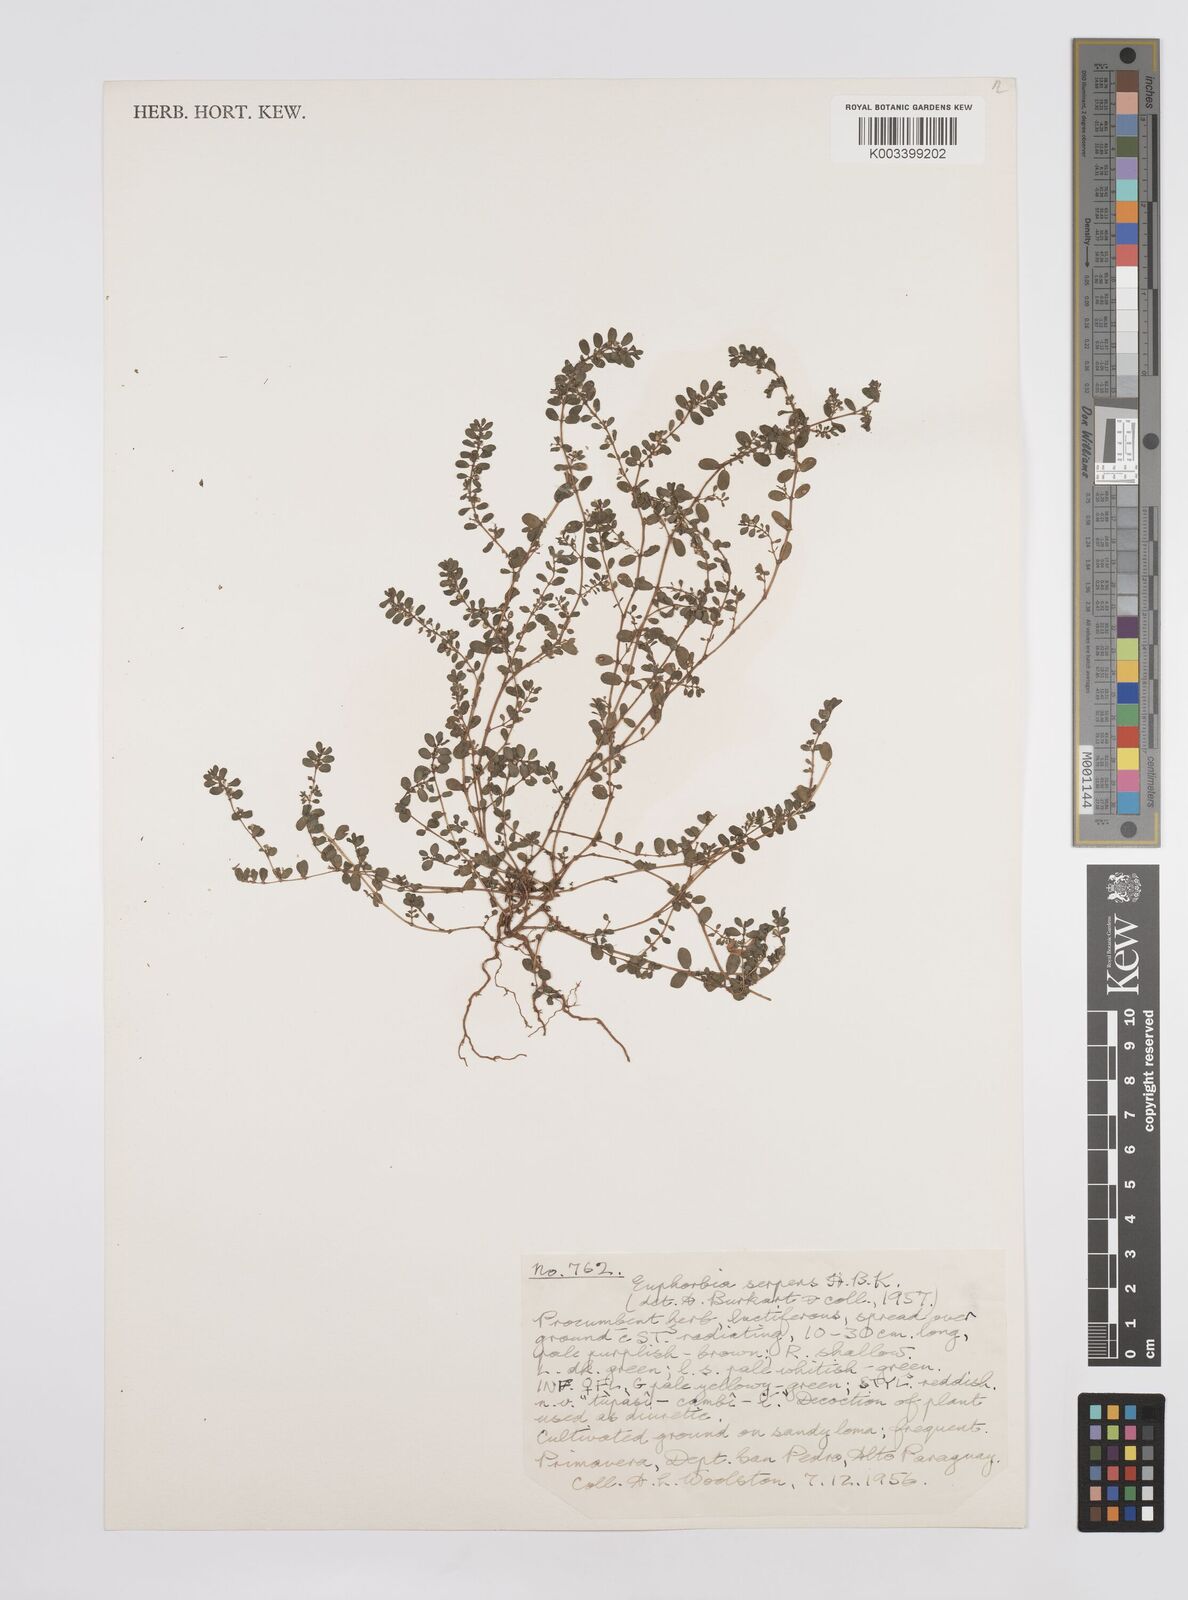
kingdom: Plantae
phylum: Tracheophyta
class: Magnoliopsida
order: Malpighiales
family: Euphorbiaceae
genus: Euphorbia
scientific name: Euphorbia serpens
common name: Matted sandmat
